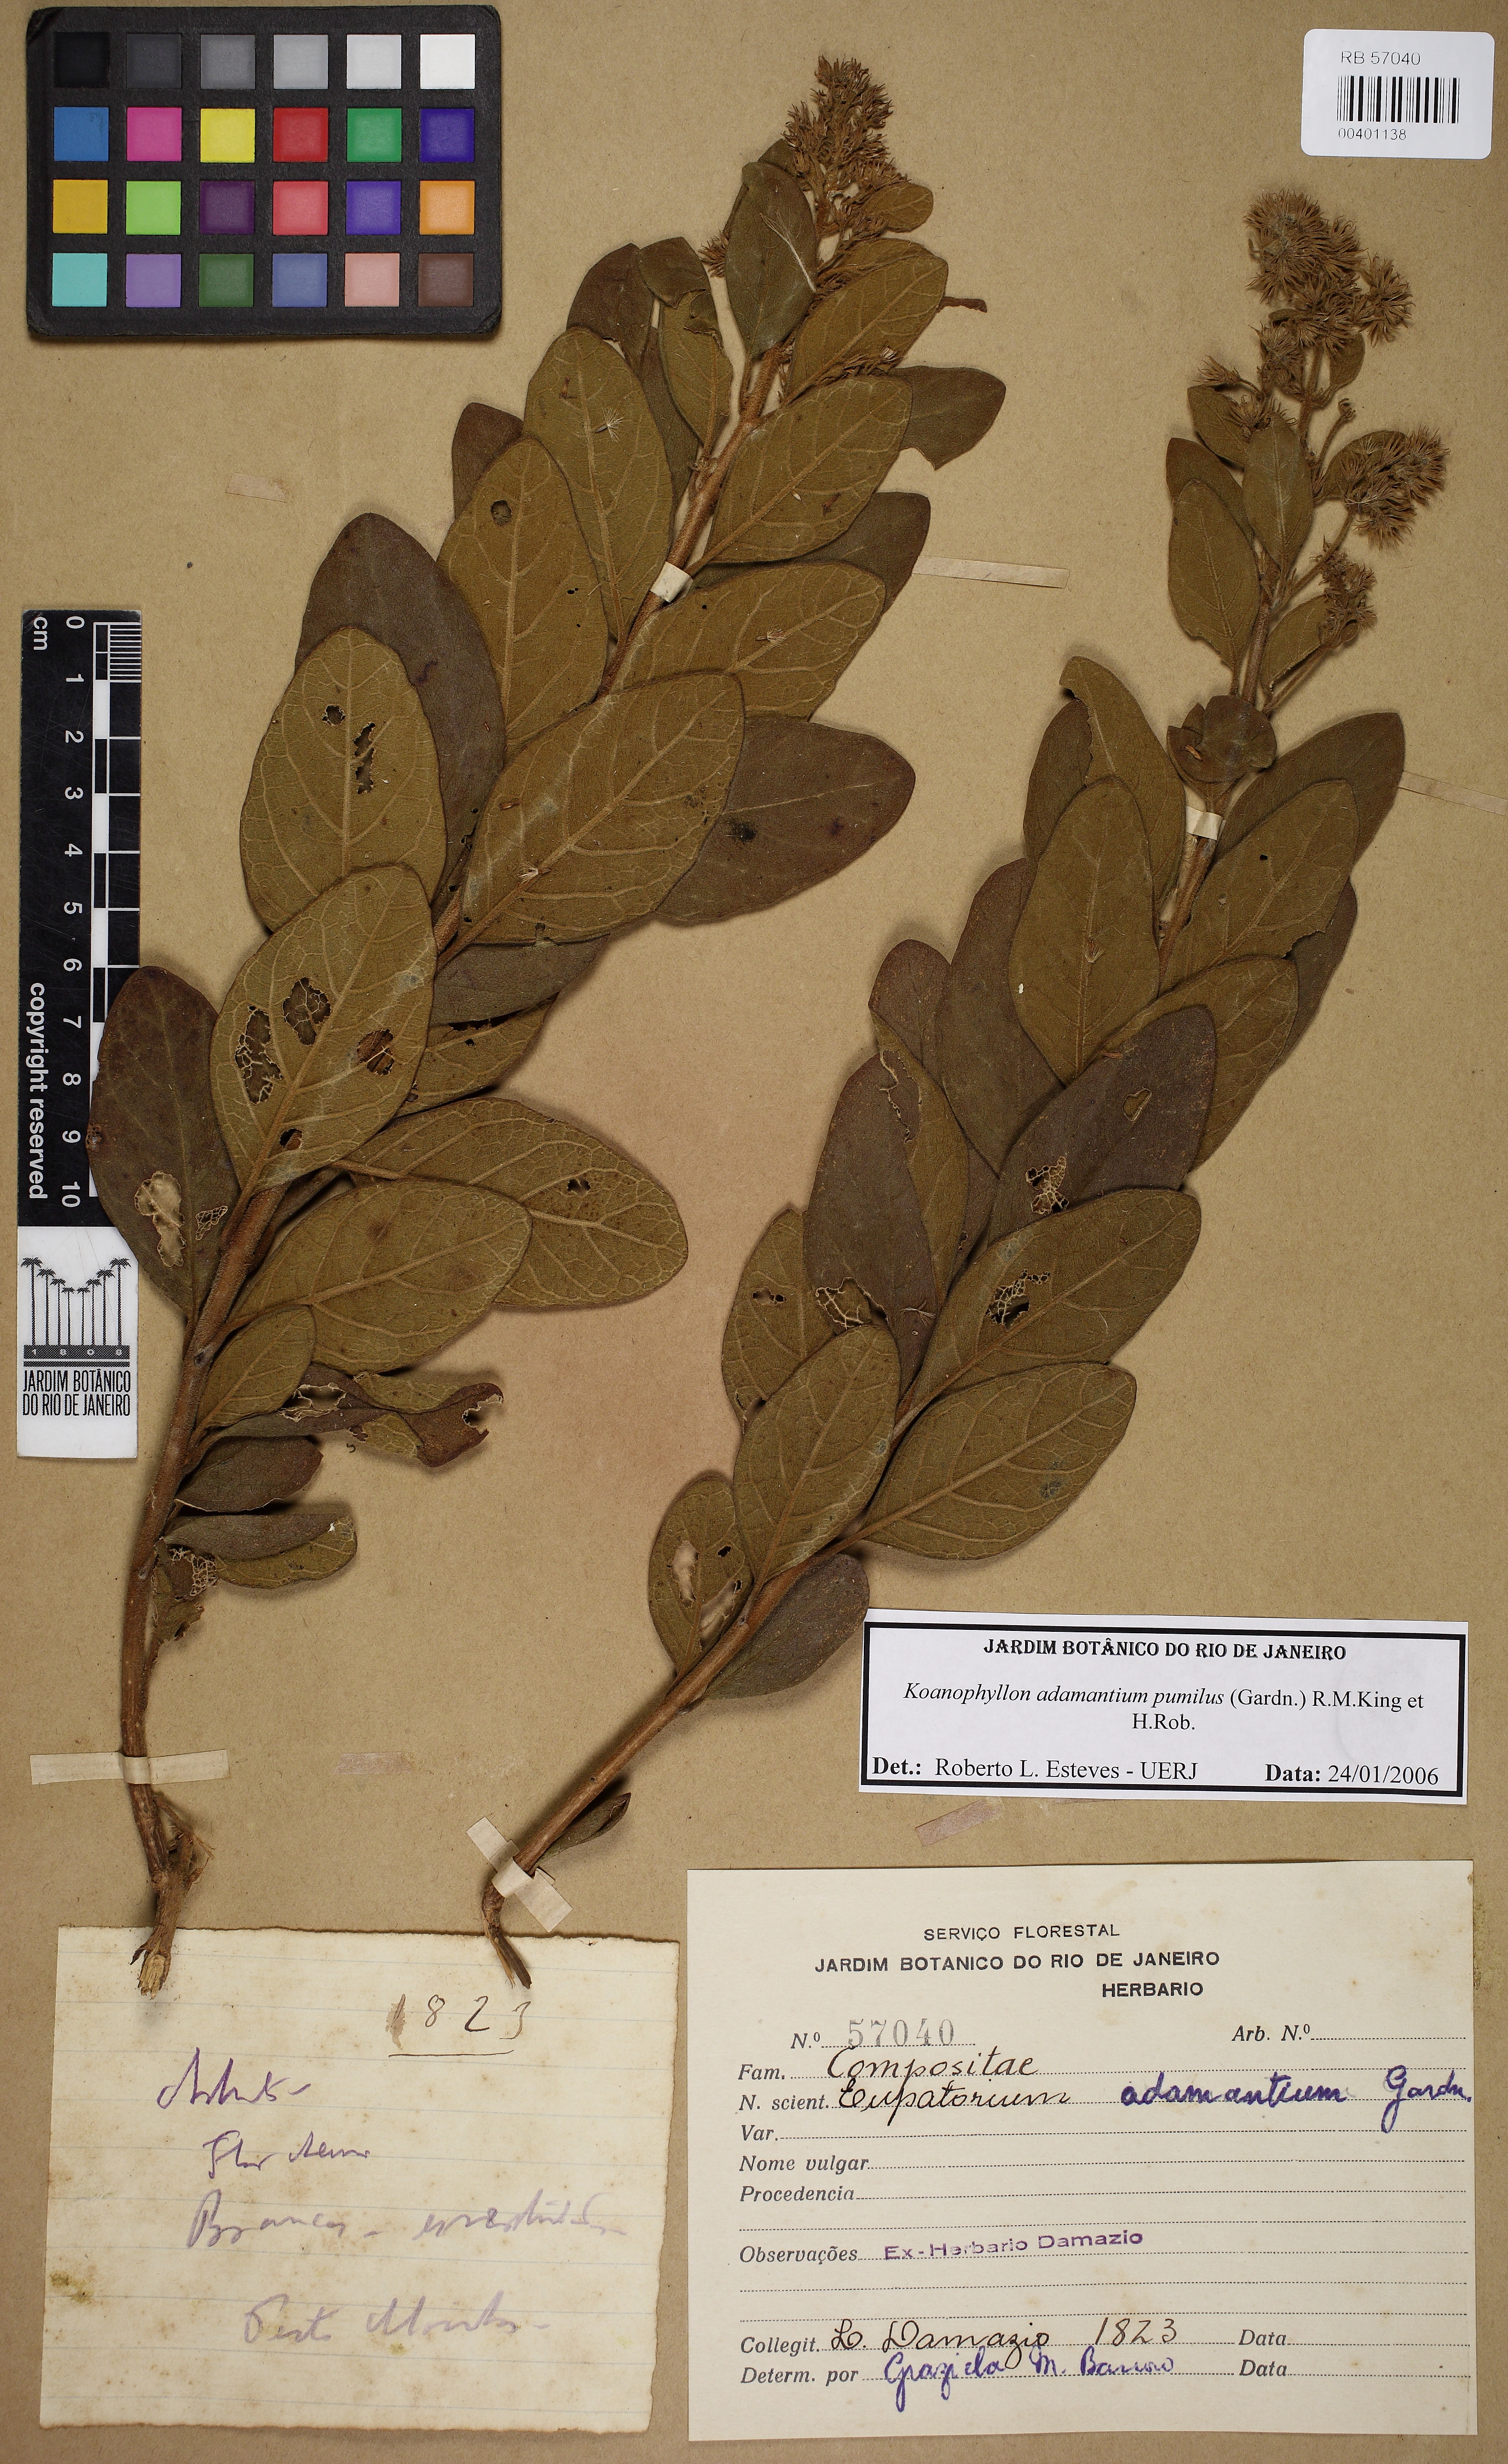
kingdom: Plantae
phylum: Tracheophyta
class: Magnoliopsida
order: Asterales
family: Asteraceae
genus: Koanophyllon
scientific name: Koanophyllon adamantium
